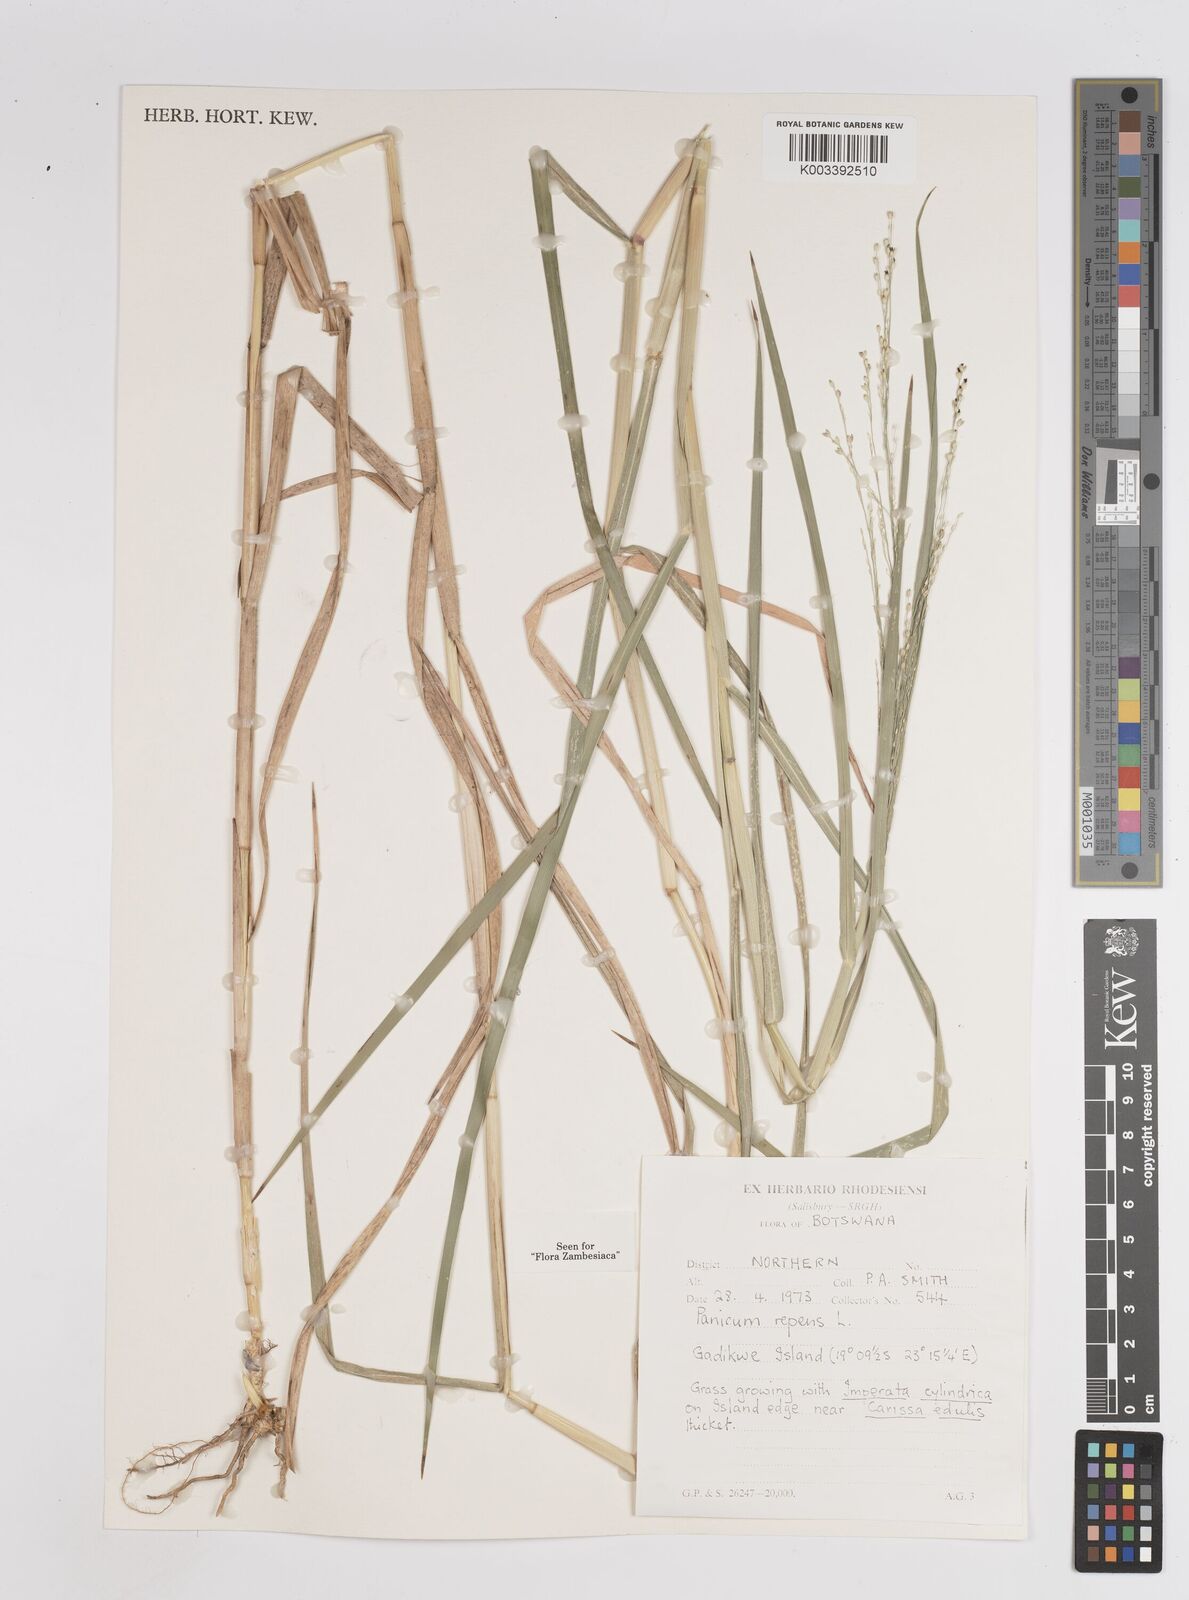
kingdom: Plantae
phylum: Tracheophyta
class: Liliopsida
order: Poales
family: Poaceae
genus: Panicum
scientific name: Panicum repens
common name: Torpedo grass
